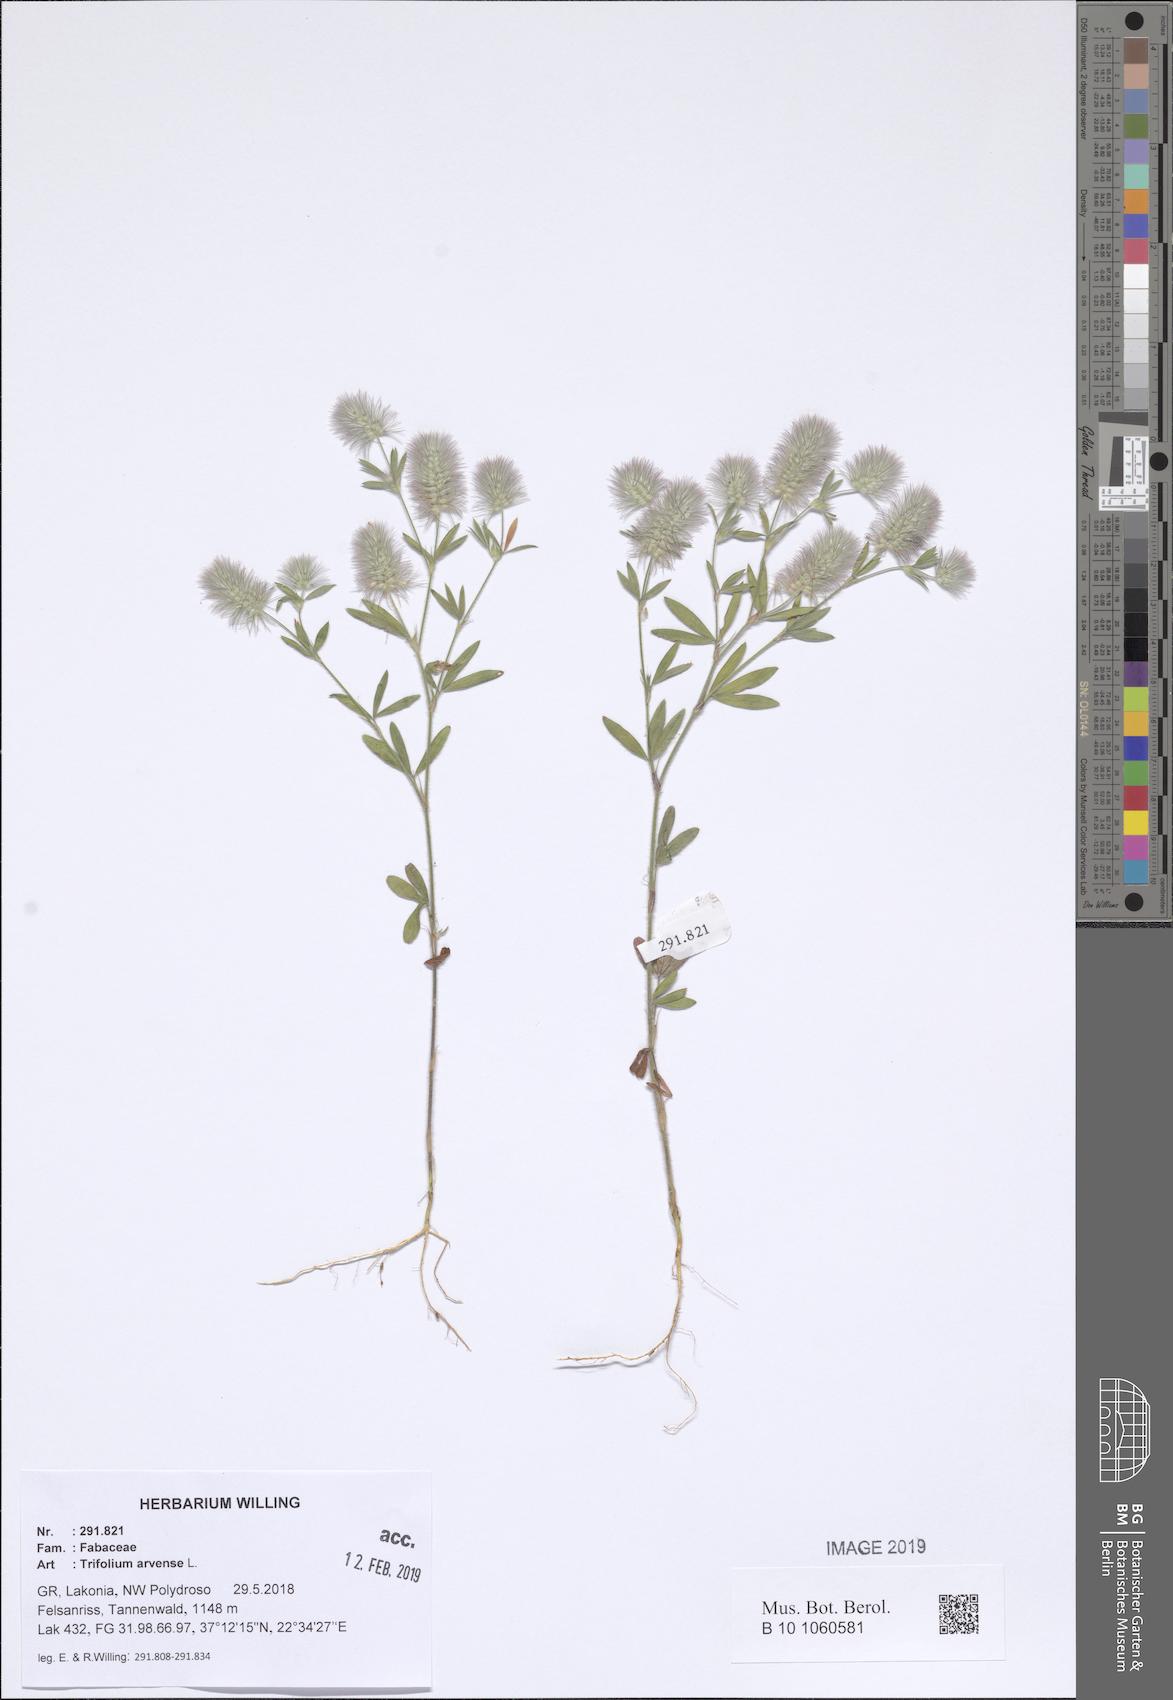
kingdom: Plantae
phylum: Tracheophyta
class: Magnoliopsida
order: Fabales
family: Fabaceae
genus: Trifolium
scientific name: Trifolium arvense
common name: Hare's-foot clover
